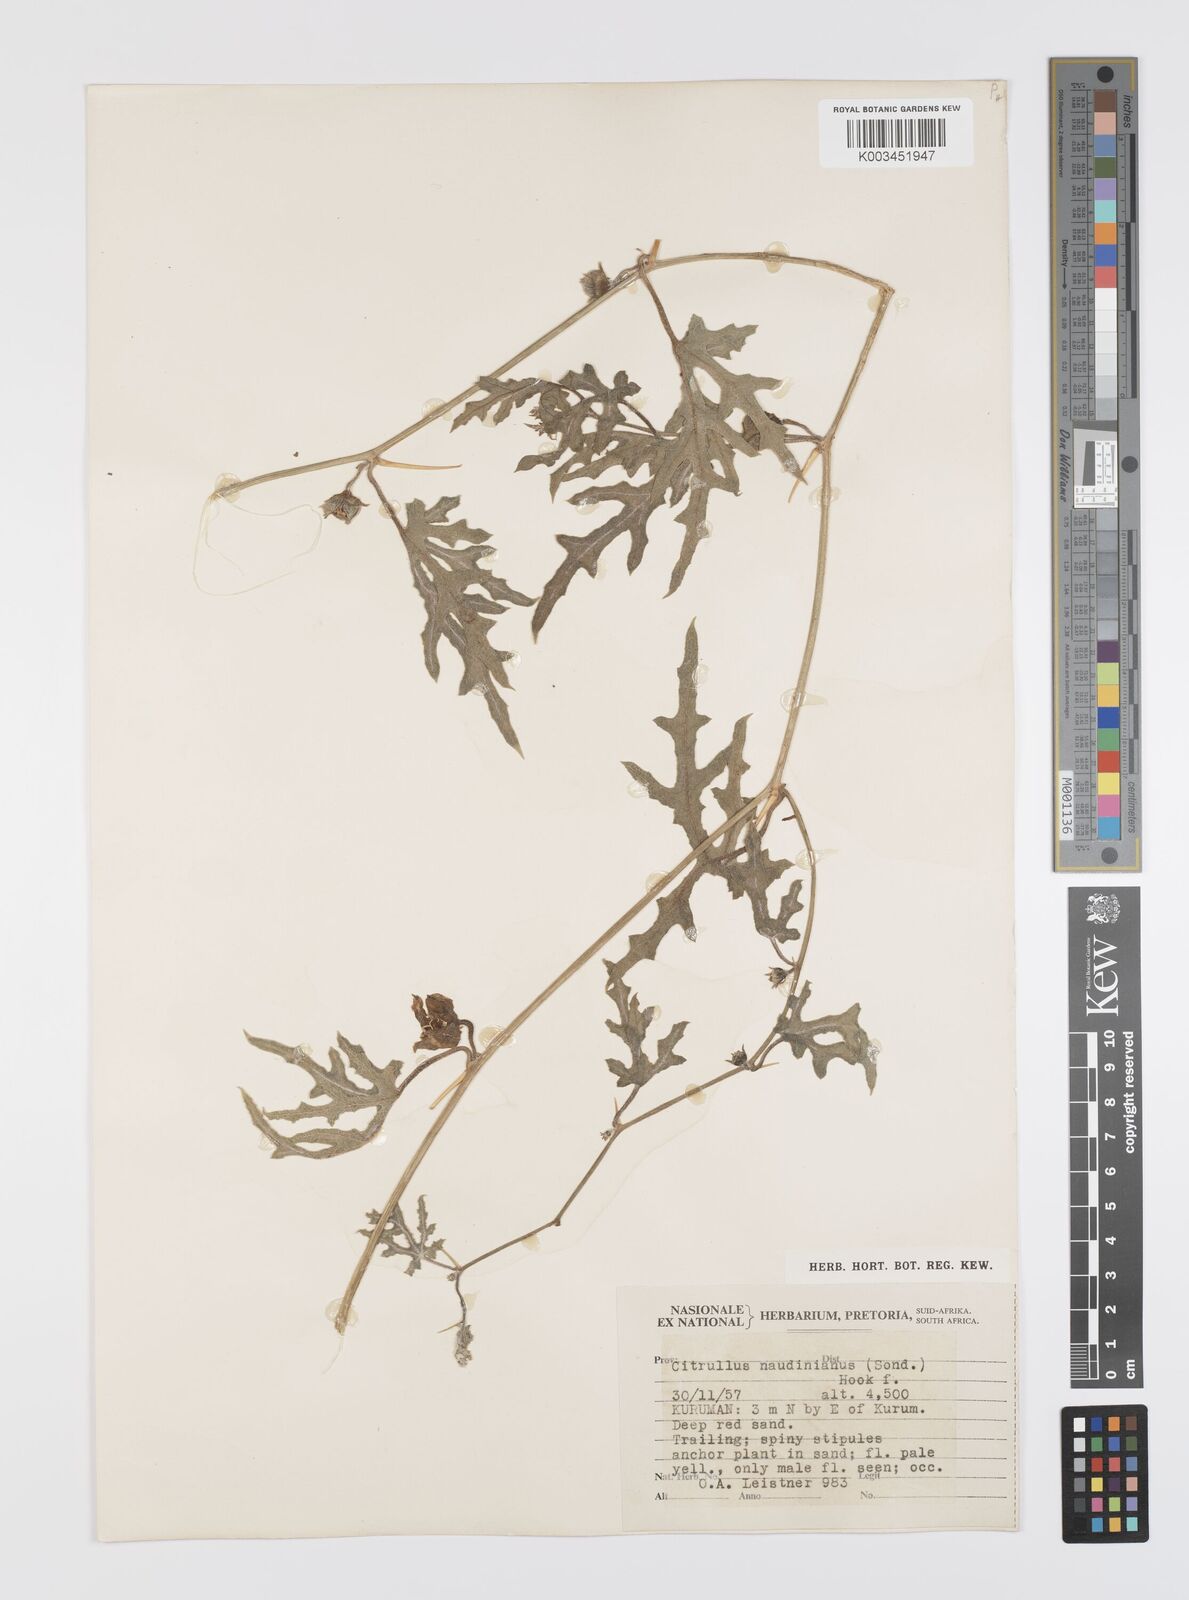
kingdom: Plantae
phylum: Tracheophyta
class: Magnoliopsida
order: Cucurbitales
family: Cucurbitaceae
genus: Citrullus
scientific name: Citrullus naudinianus
